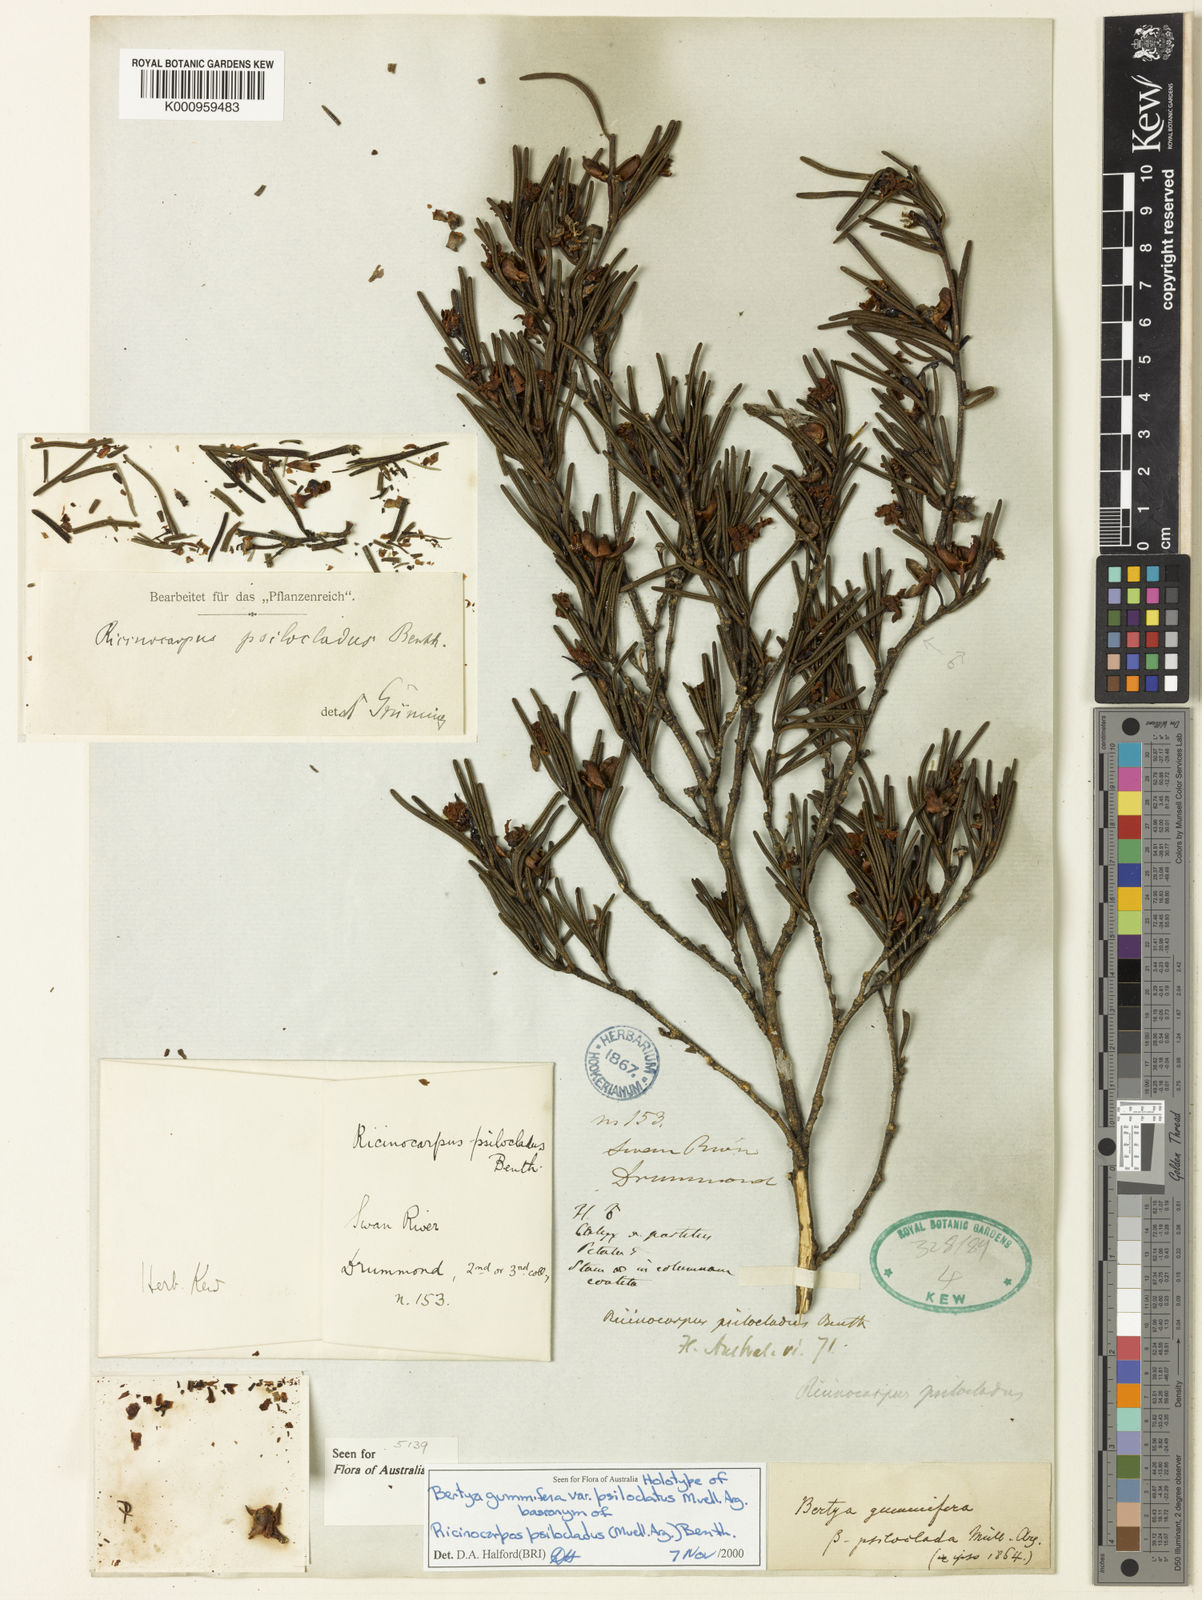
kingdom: Plantae
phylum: Tracheophyta
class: Magnoliopsida
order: Malpighiales
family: Euphorbiaceae
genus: Ricinocarpos
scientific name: Ricinocarpos
